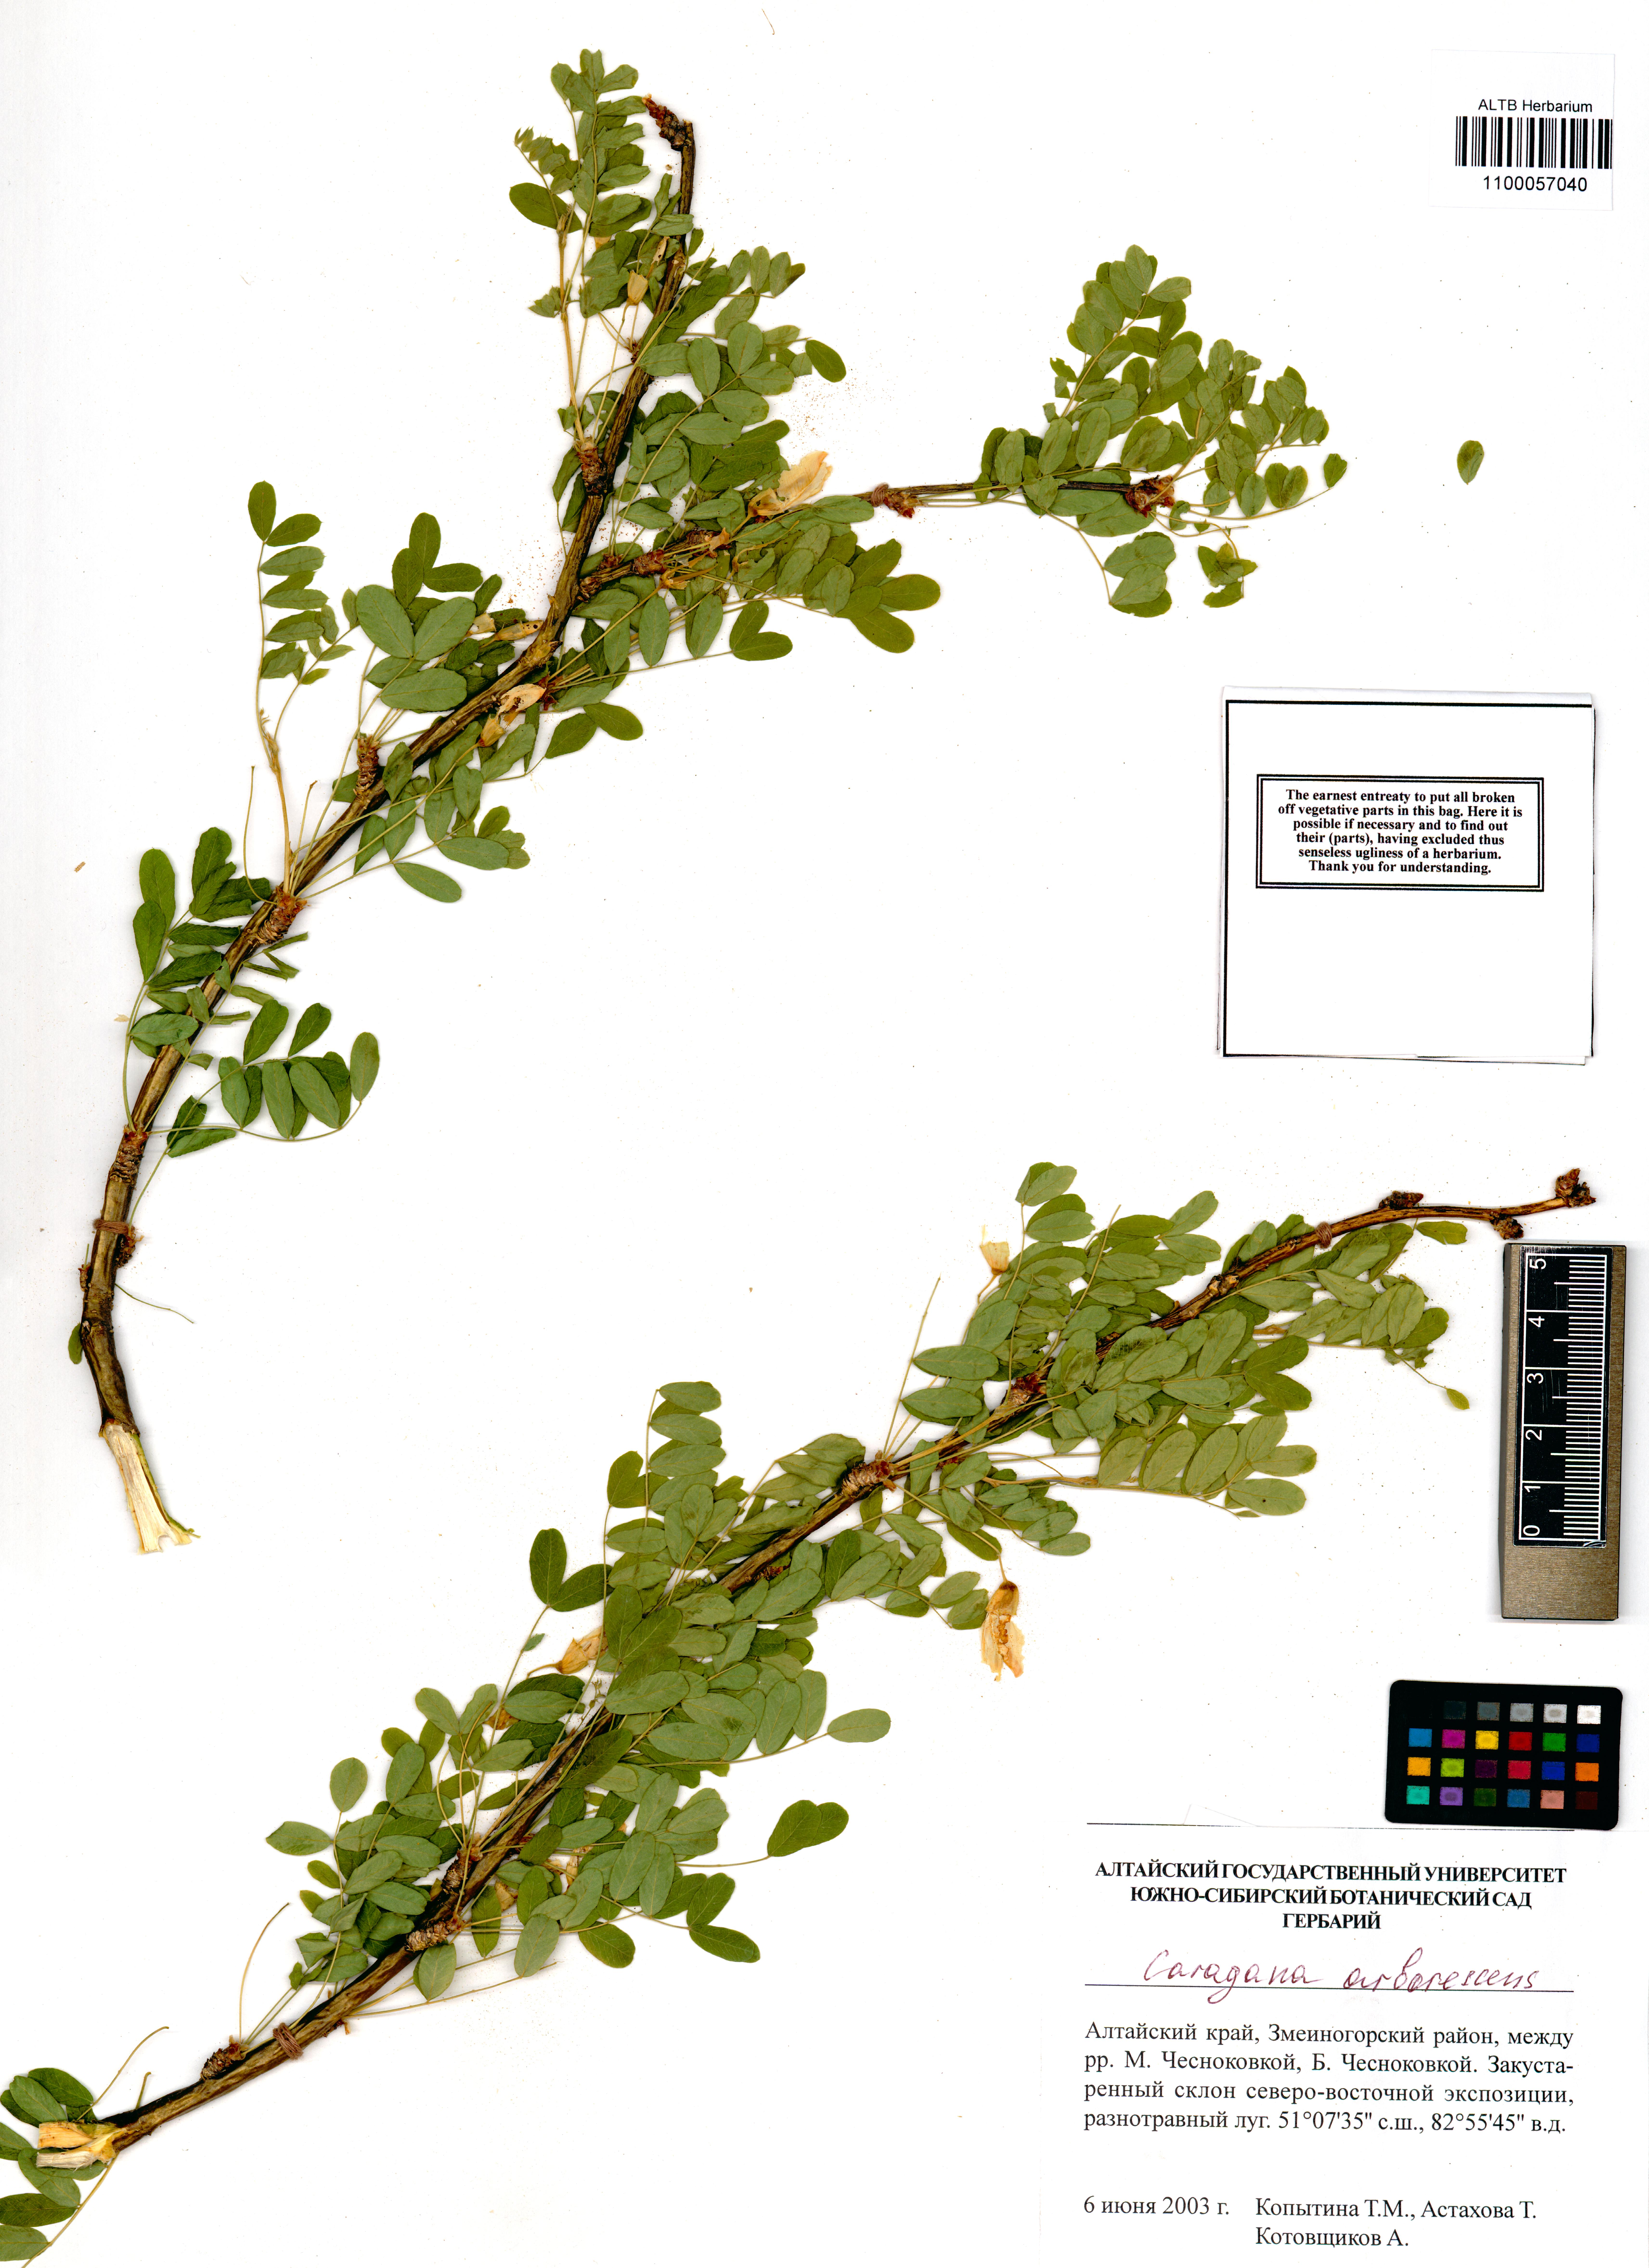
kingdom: Plantae
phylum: Tracheophyta
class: Magnoliopsida
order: Fabales
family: Fabaceae
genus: Caragana
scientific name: Caragana arborescens
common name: Siberian peashrub
